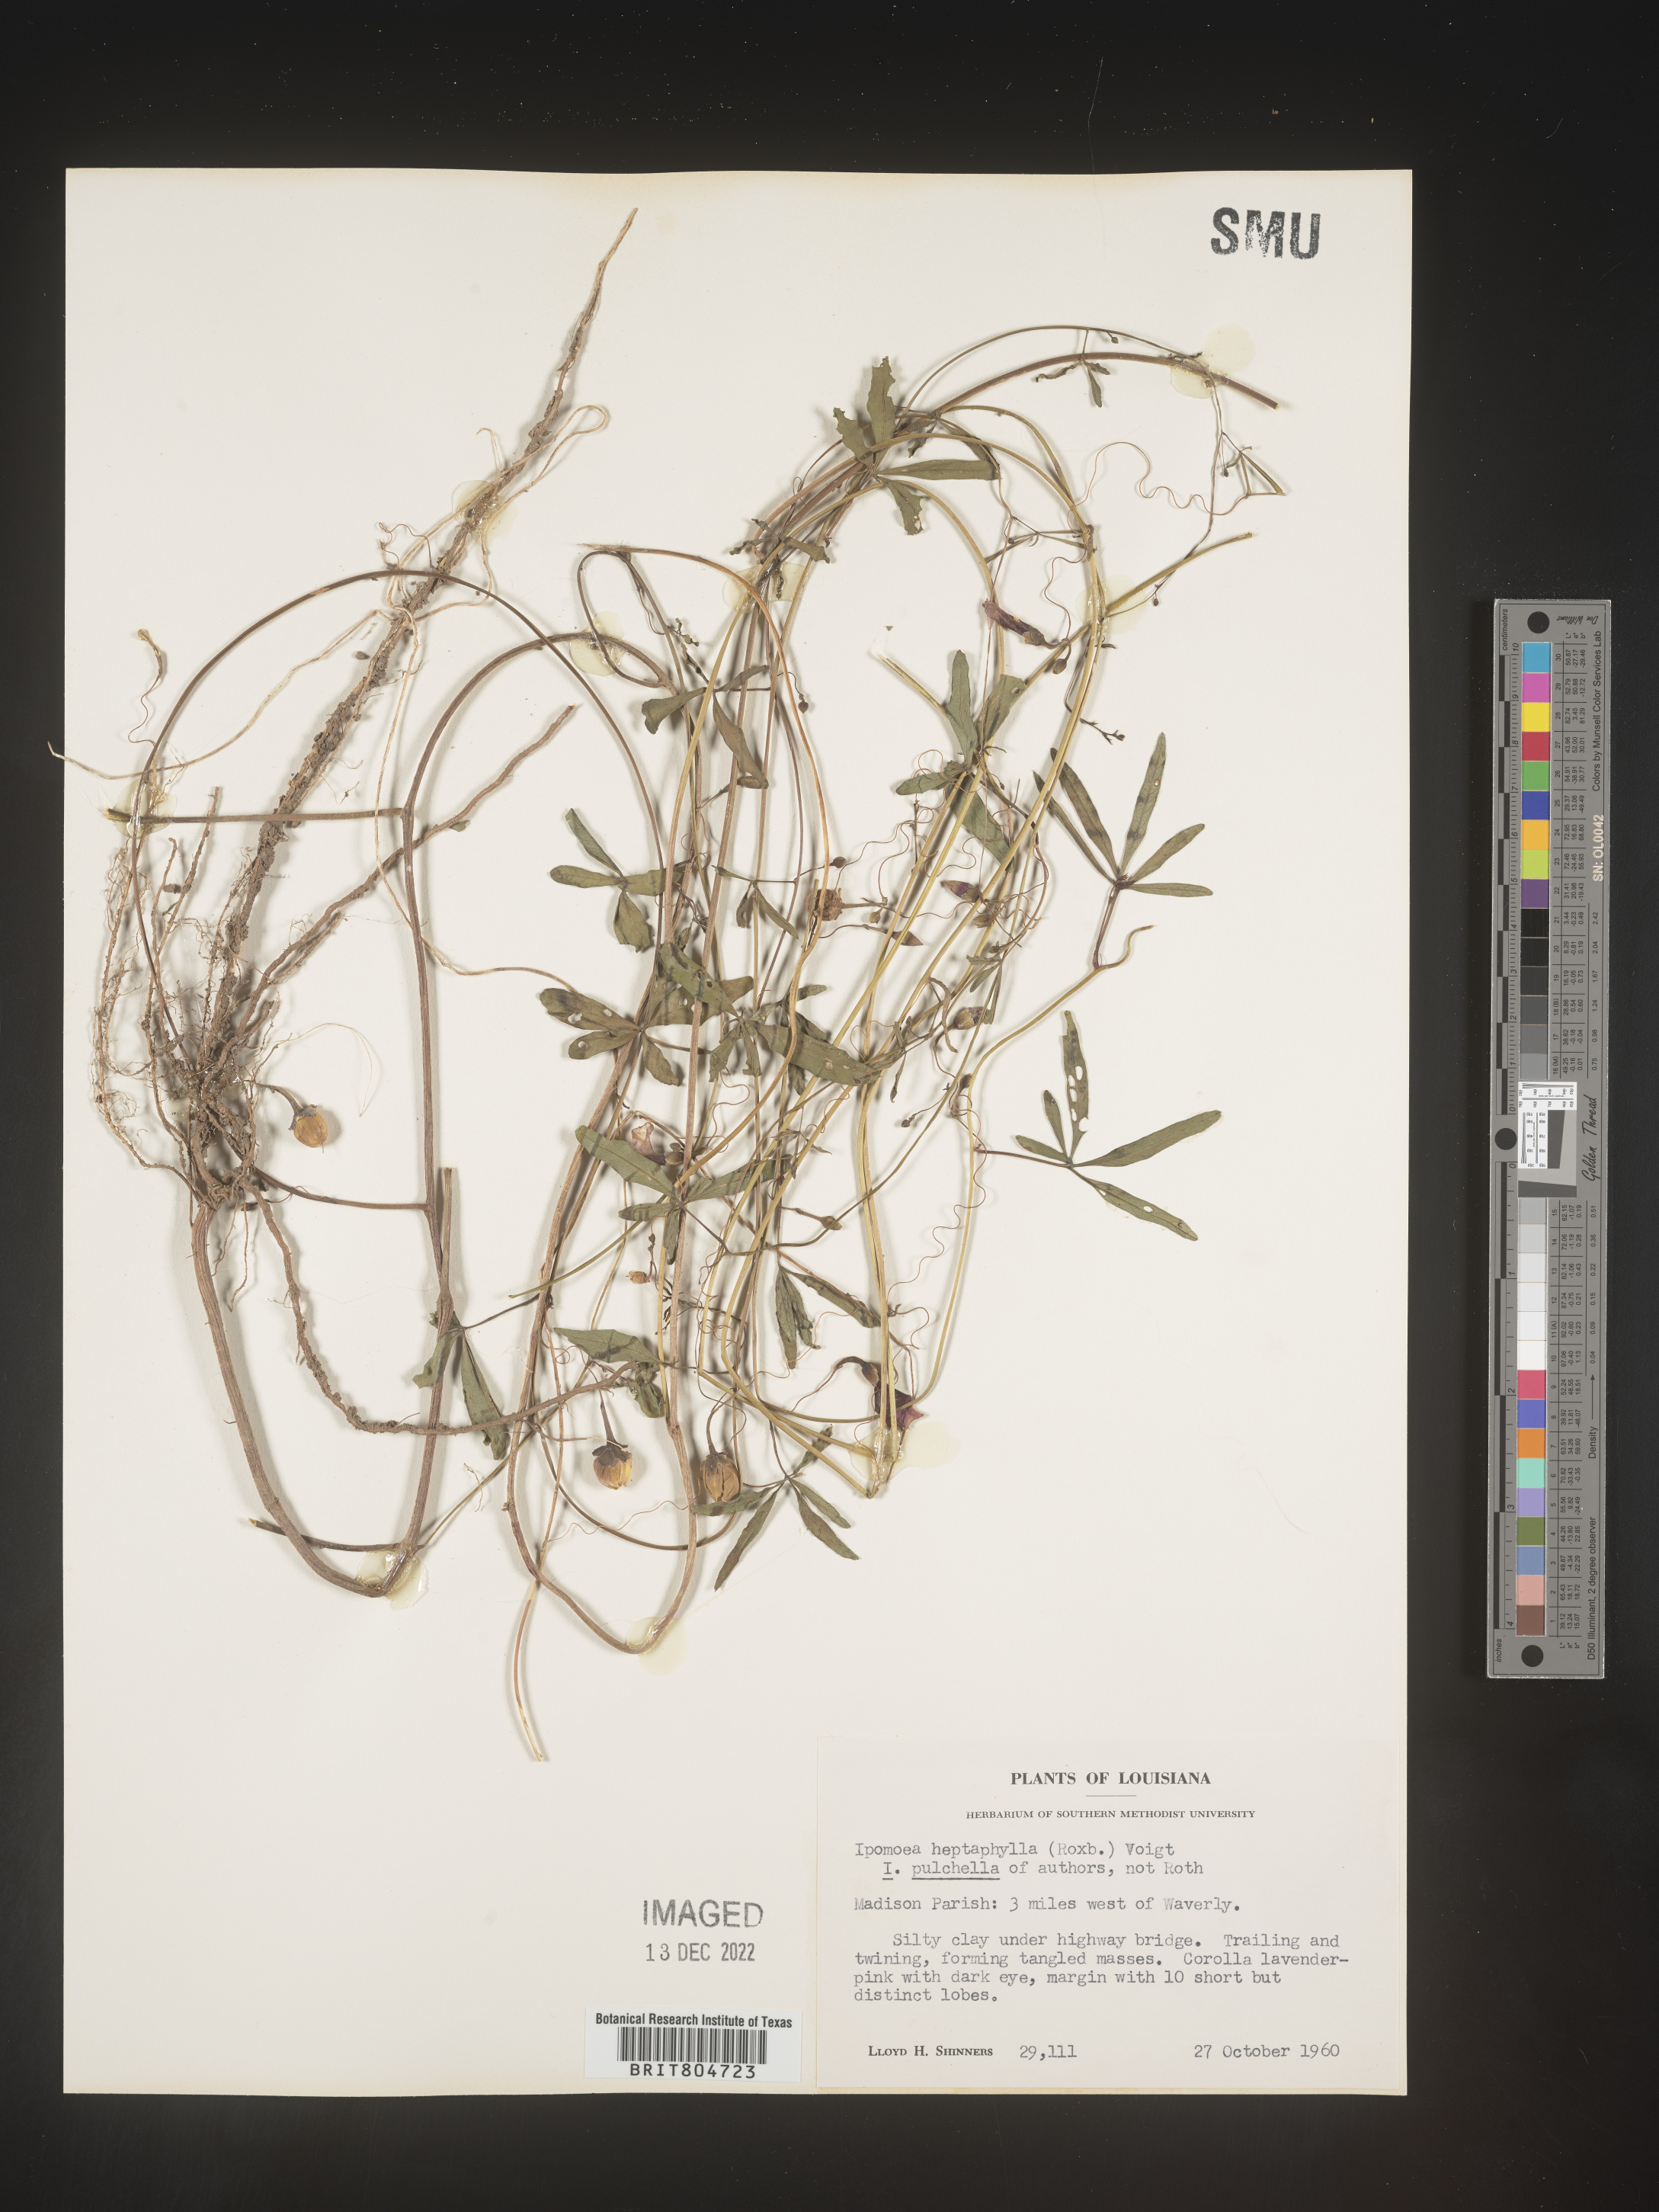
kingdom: Plantae
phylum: Tracheophyta
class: Magnoliopsida
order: Solanales
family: Convolvulaceae
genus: Ipomoea
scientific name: Ipomoea tenuipes
